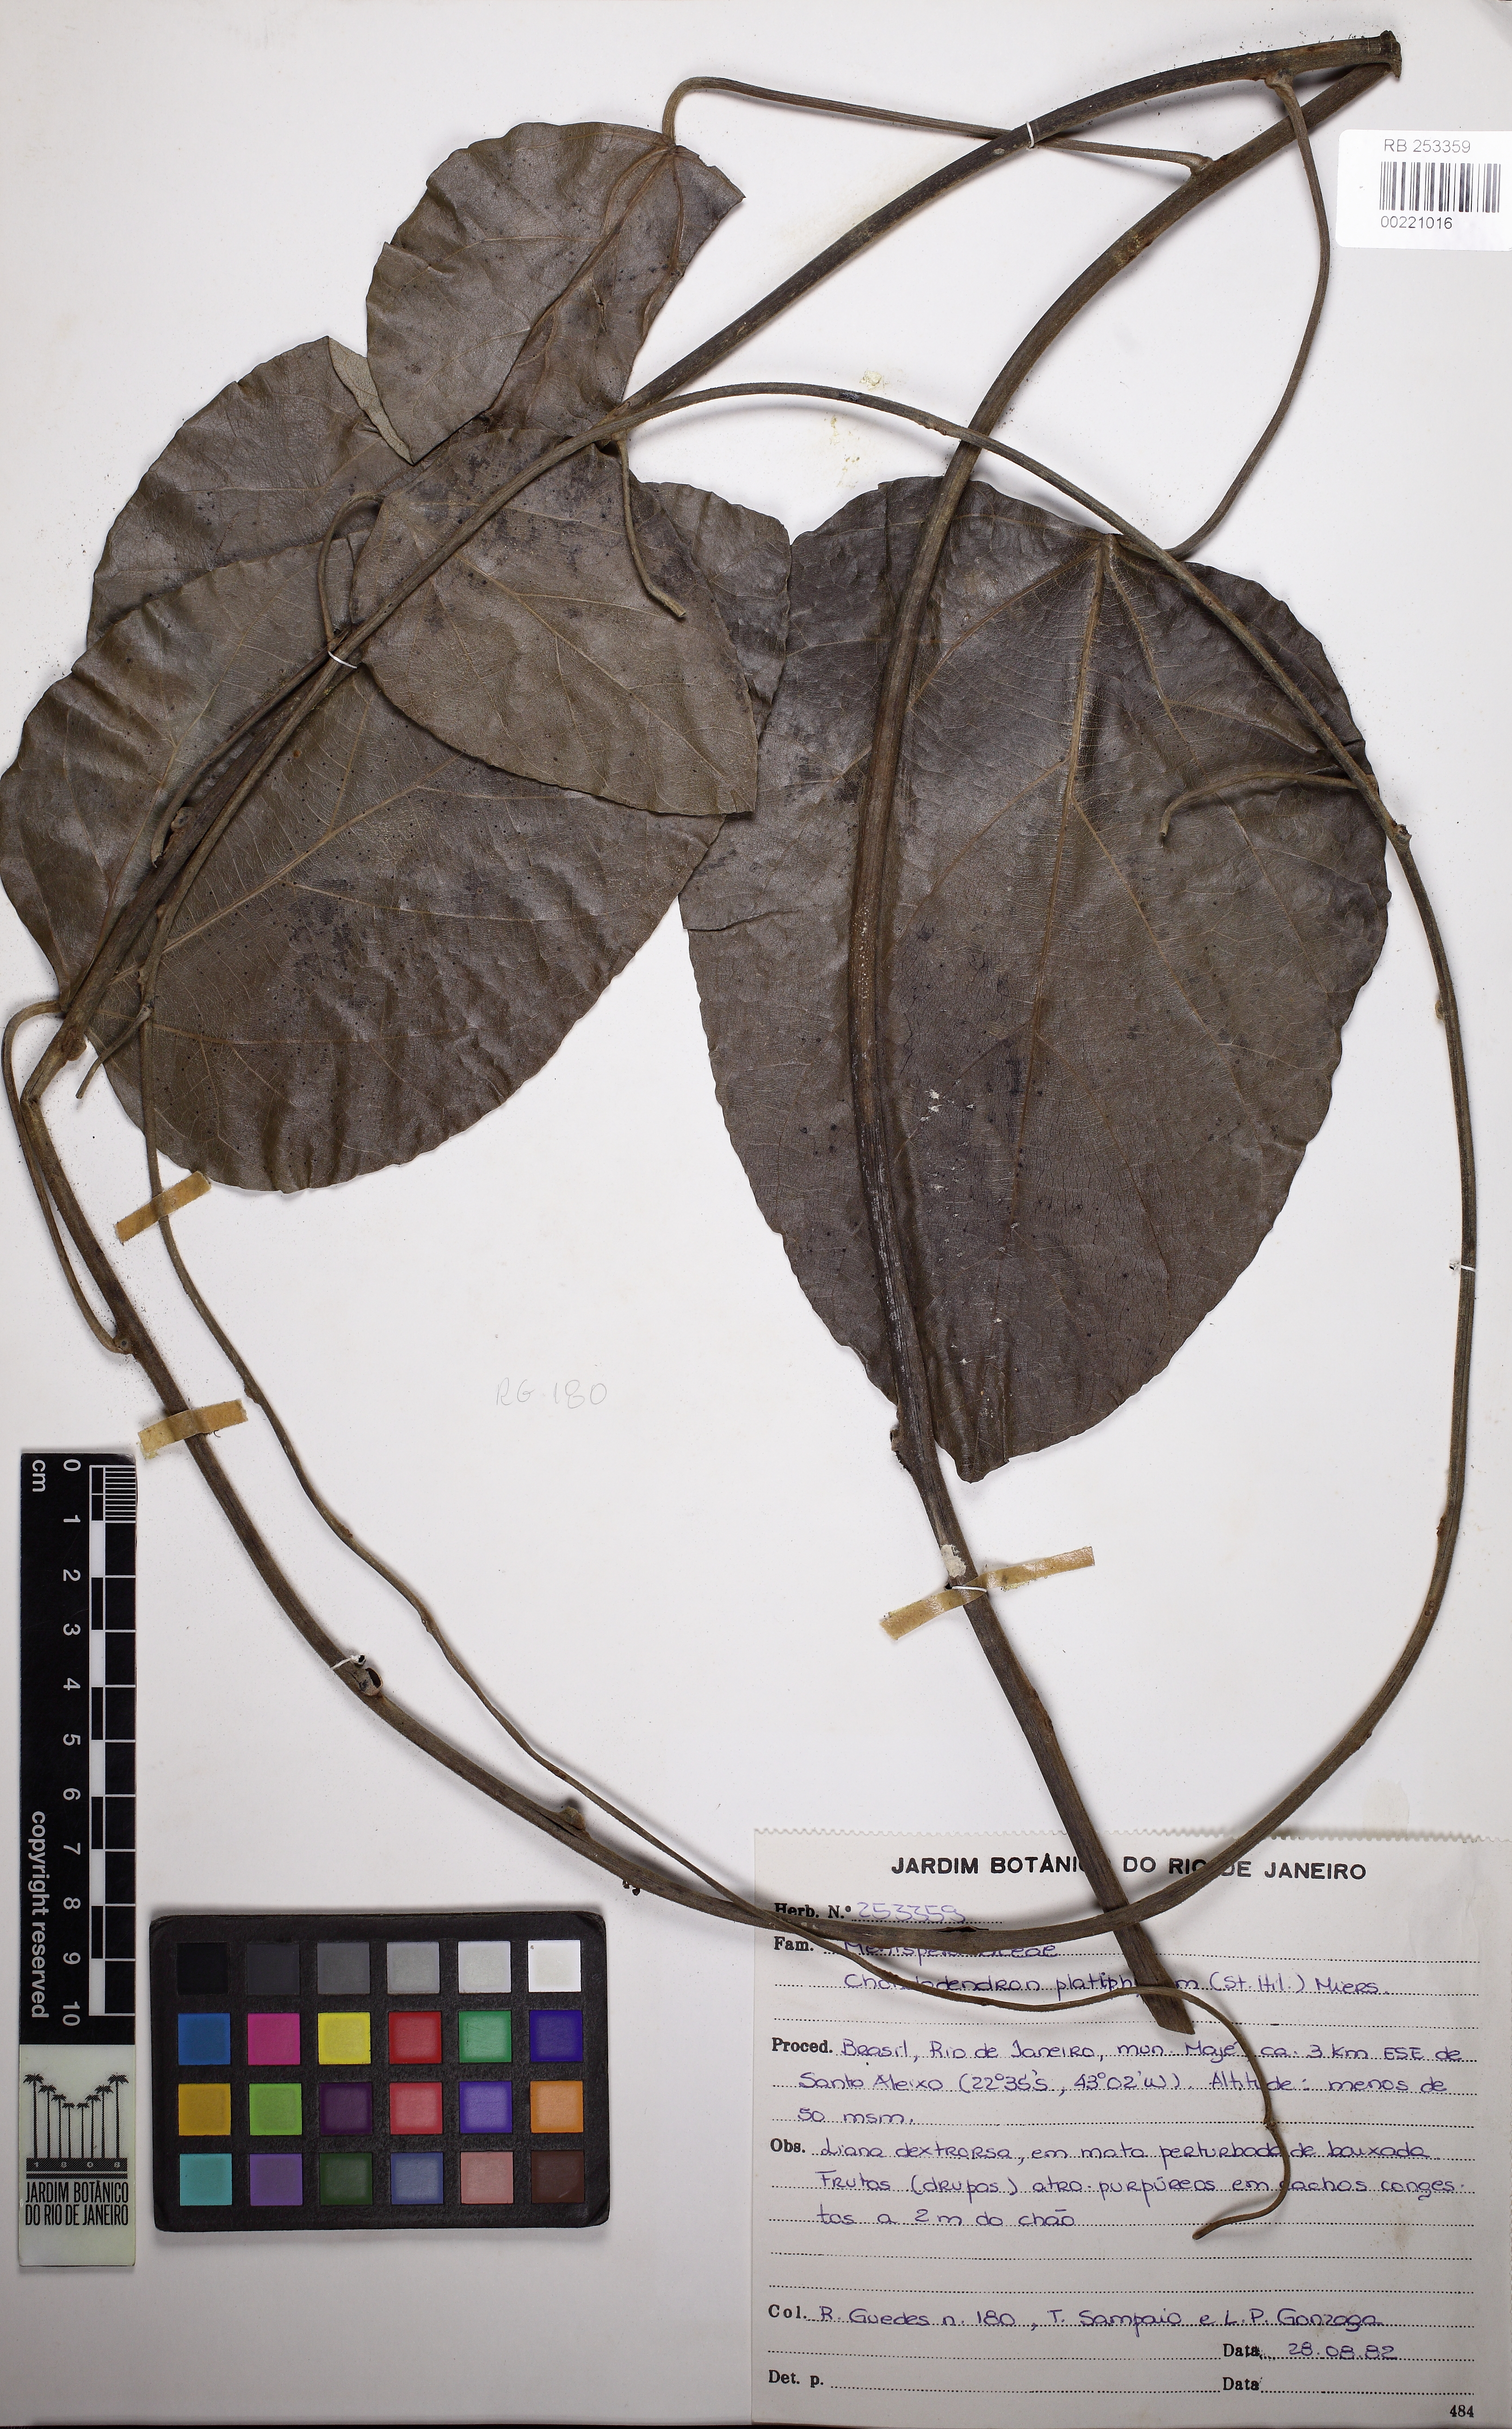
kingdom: Plantae
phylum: Tracheophyta
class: Magnoliopsida
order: Ranunculales
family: Menispermaceae
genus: Chondrodendron
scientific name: Chondrodendron platyphyllum
